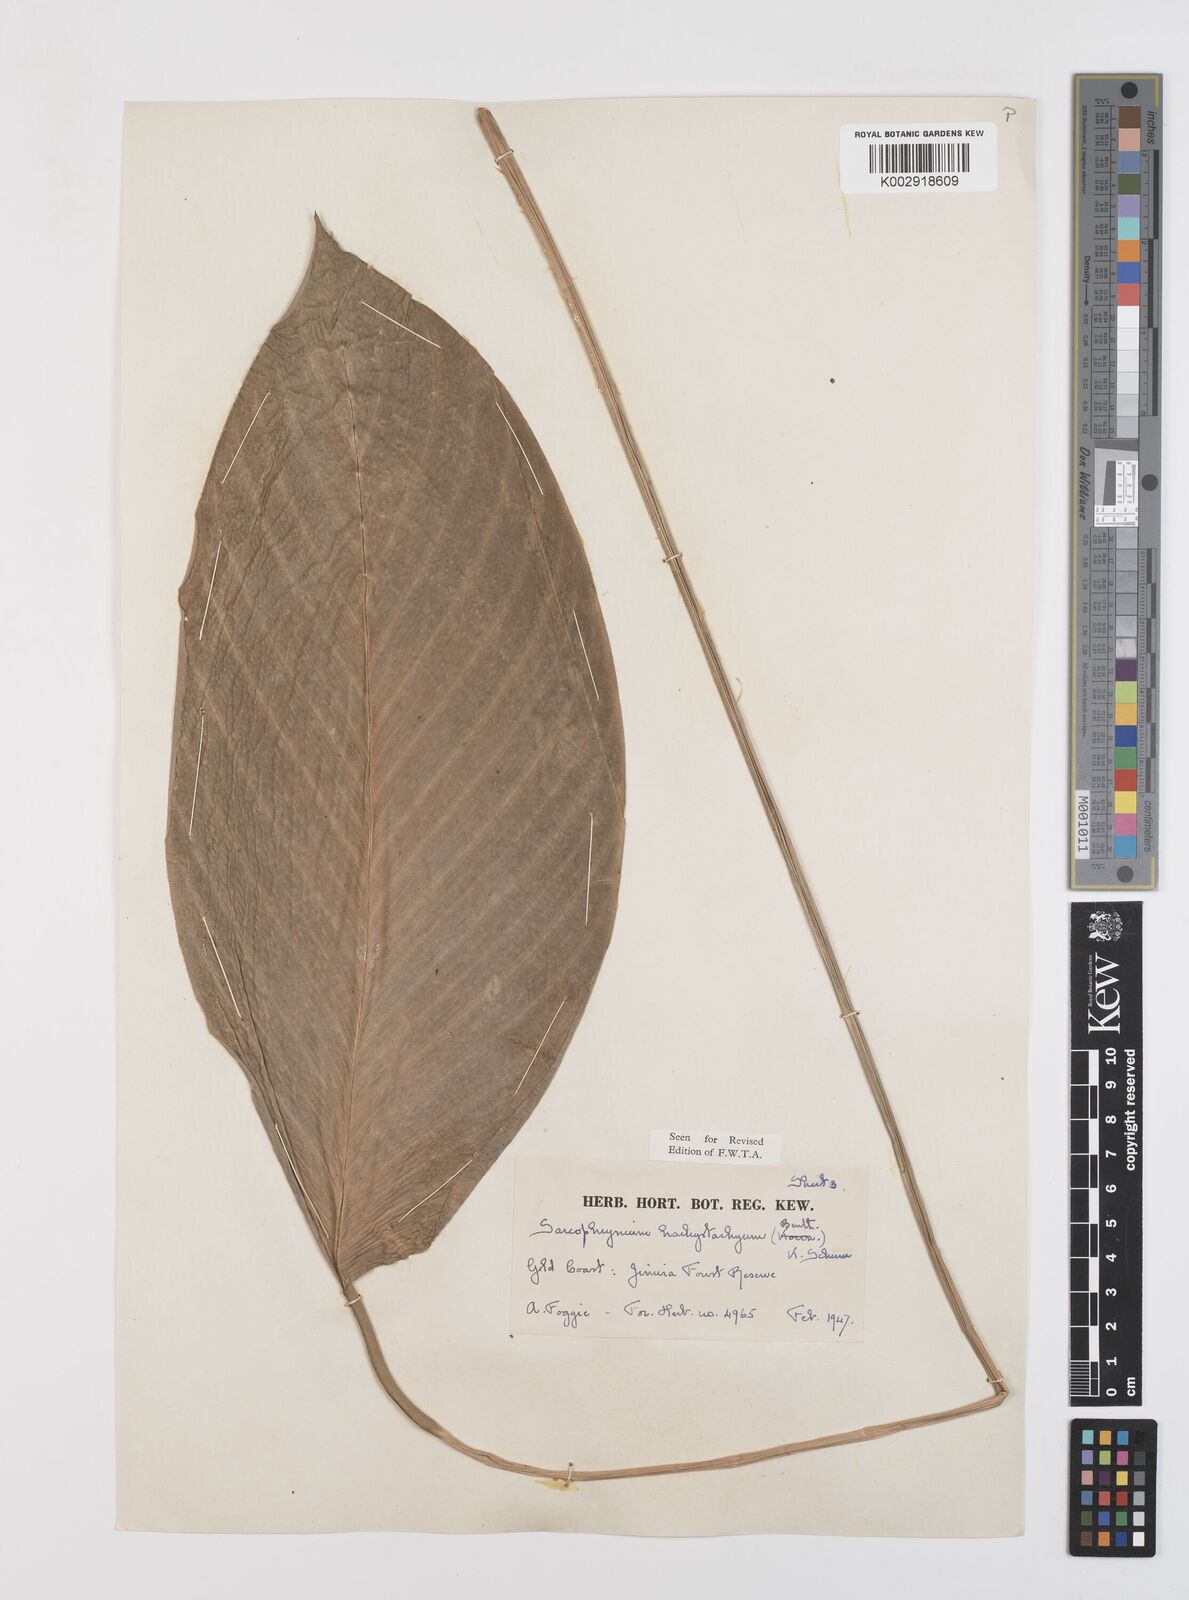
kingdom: Plantae
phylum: Tracheophyta
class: Liliopsida
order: Zingiberales
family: Marantaceae
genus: Sarcophrynium
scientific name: Sarcophrynium brachystachyum
